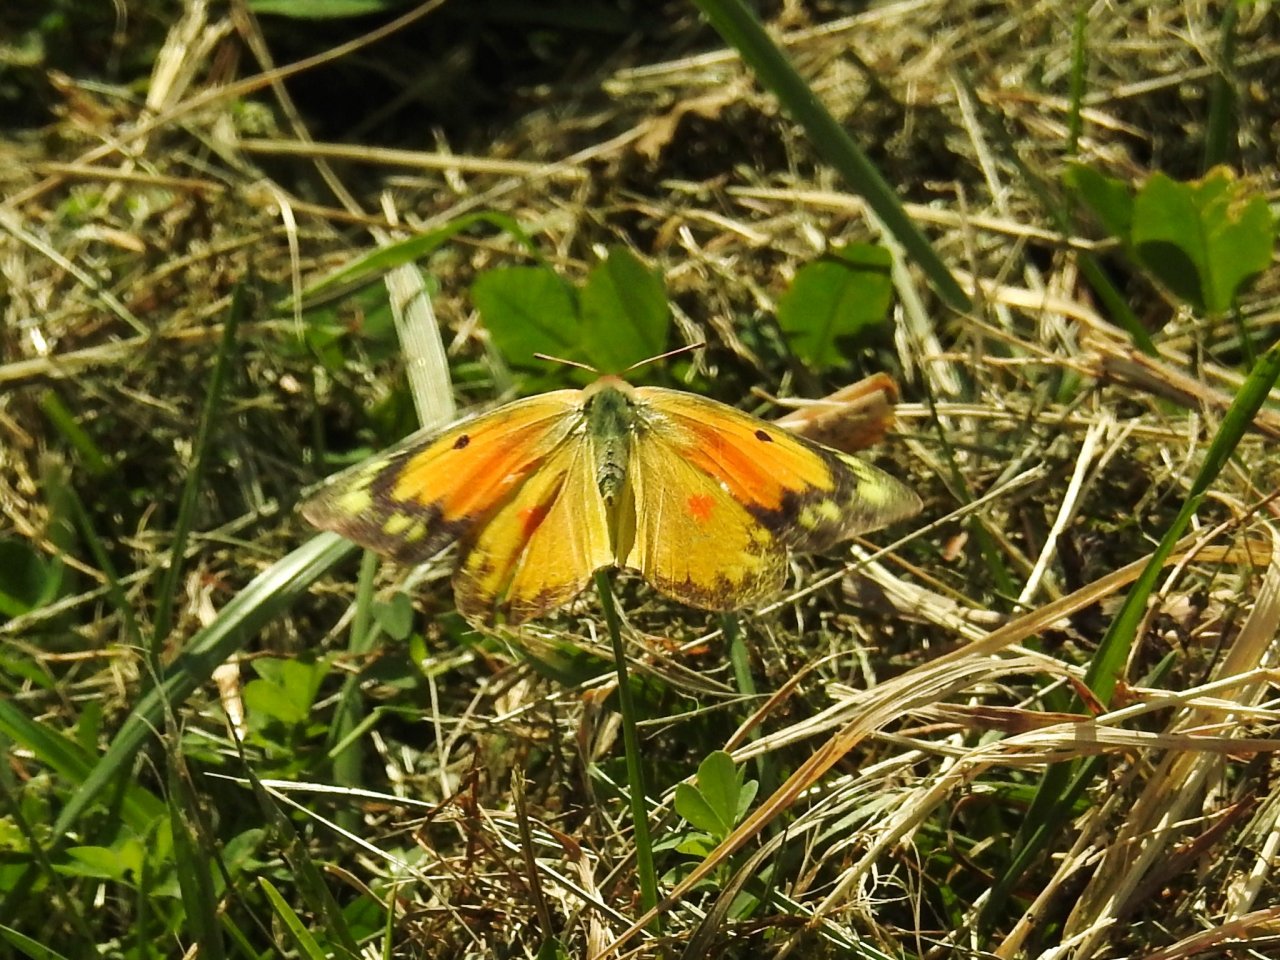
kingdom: Animalia
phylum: Arthropoda
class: Insecta
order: Lepidoptera
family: Pieridae
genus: Colias
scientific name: Colias eurytheme
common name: Orange Sulphur
